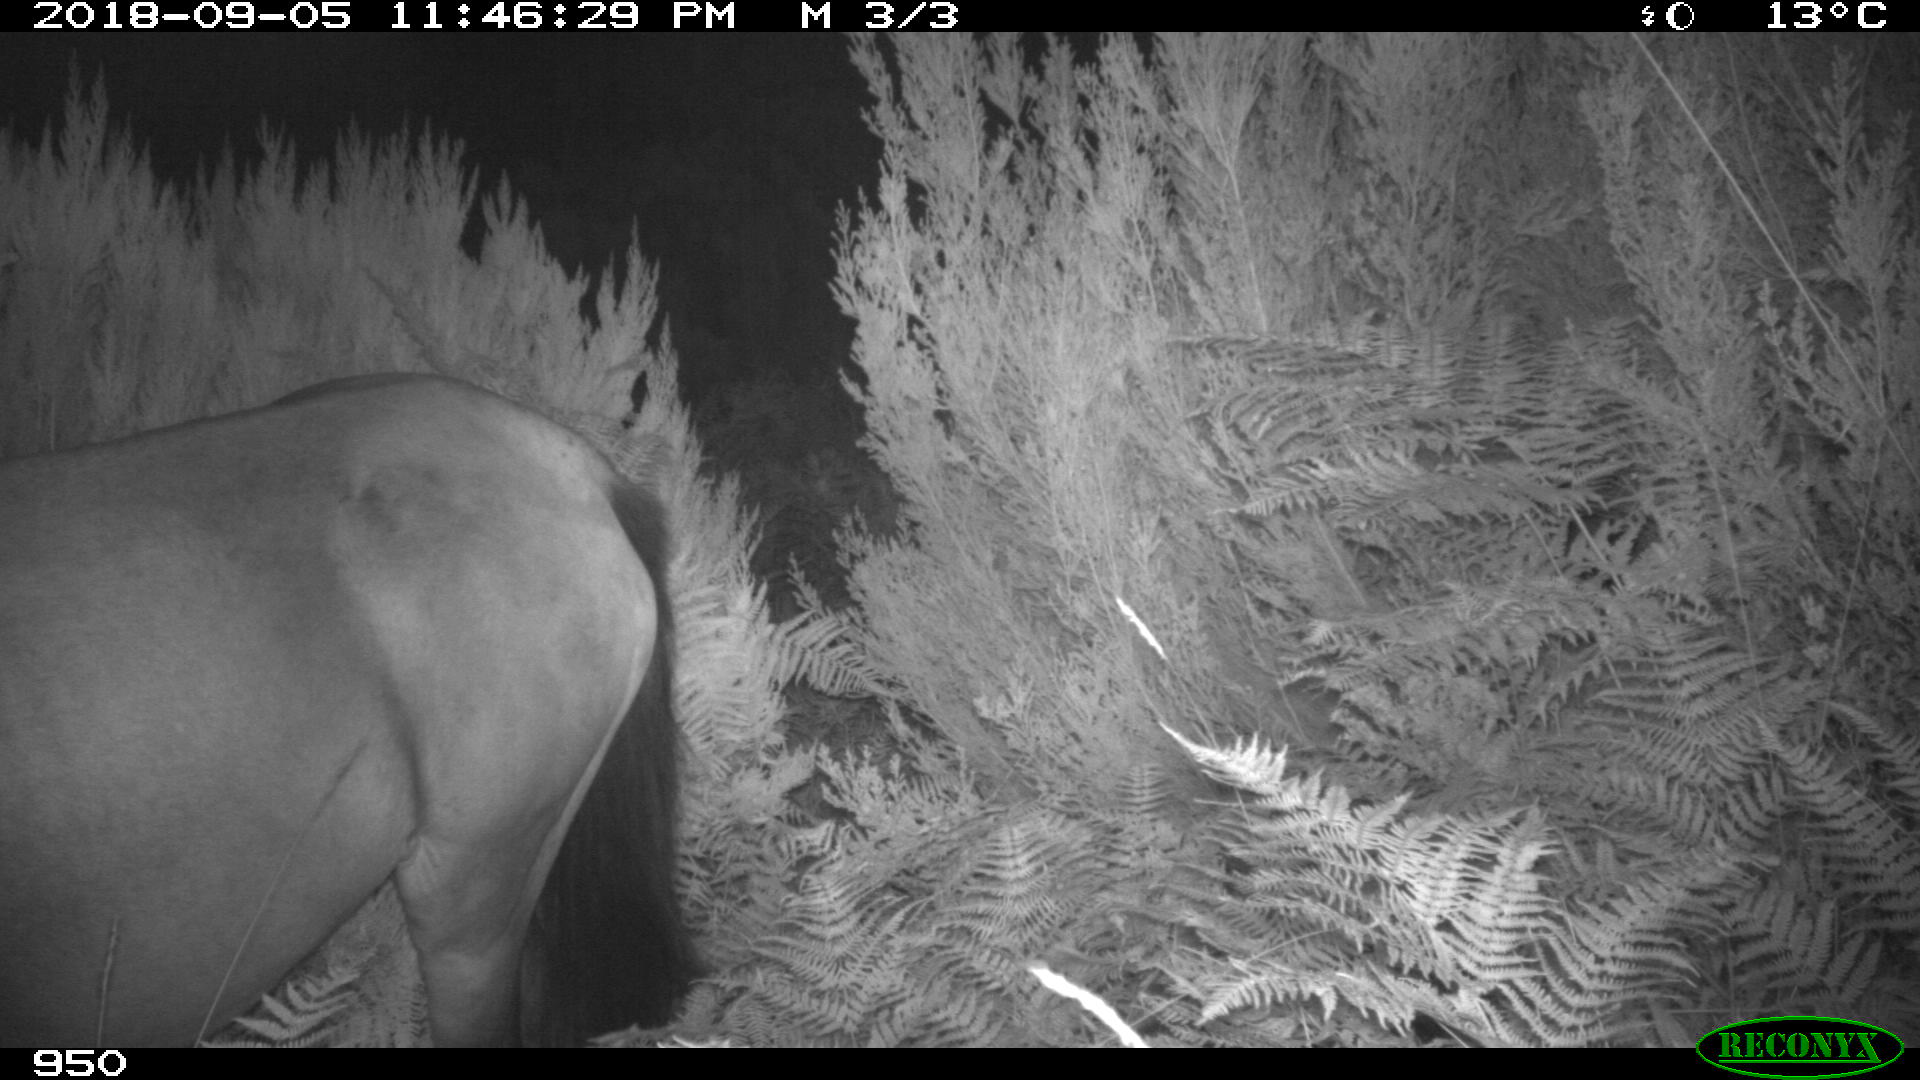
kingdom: Animalia
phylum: Chordata
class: Mammalia
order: Perissodactyla
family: Equidae
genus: Equus
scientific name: Equus caballus
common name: Horse
